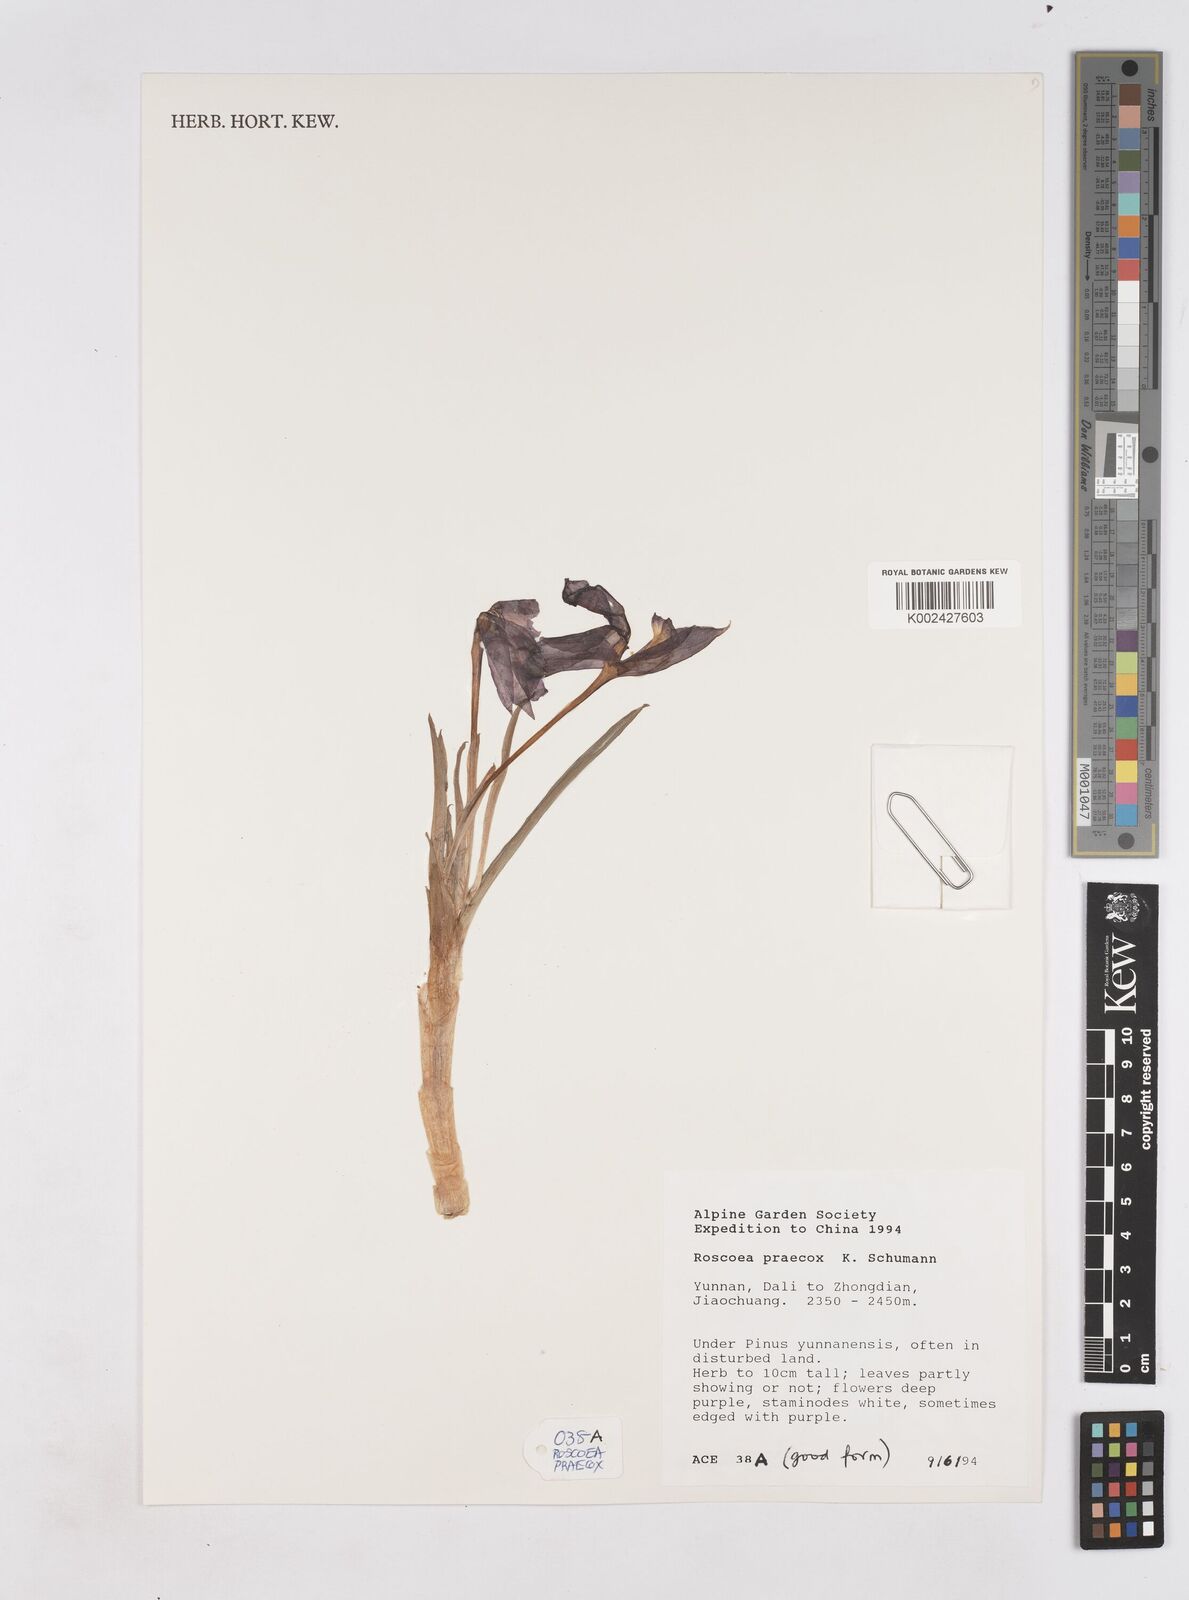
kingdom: Plantae
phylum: Tracheophyta
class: Liliopsida
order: Zingiberales
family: Zingiberaceae
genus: Roscoea
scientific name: Roscoea praecox
